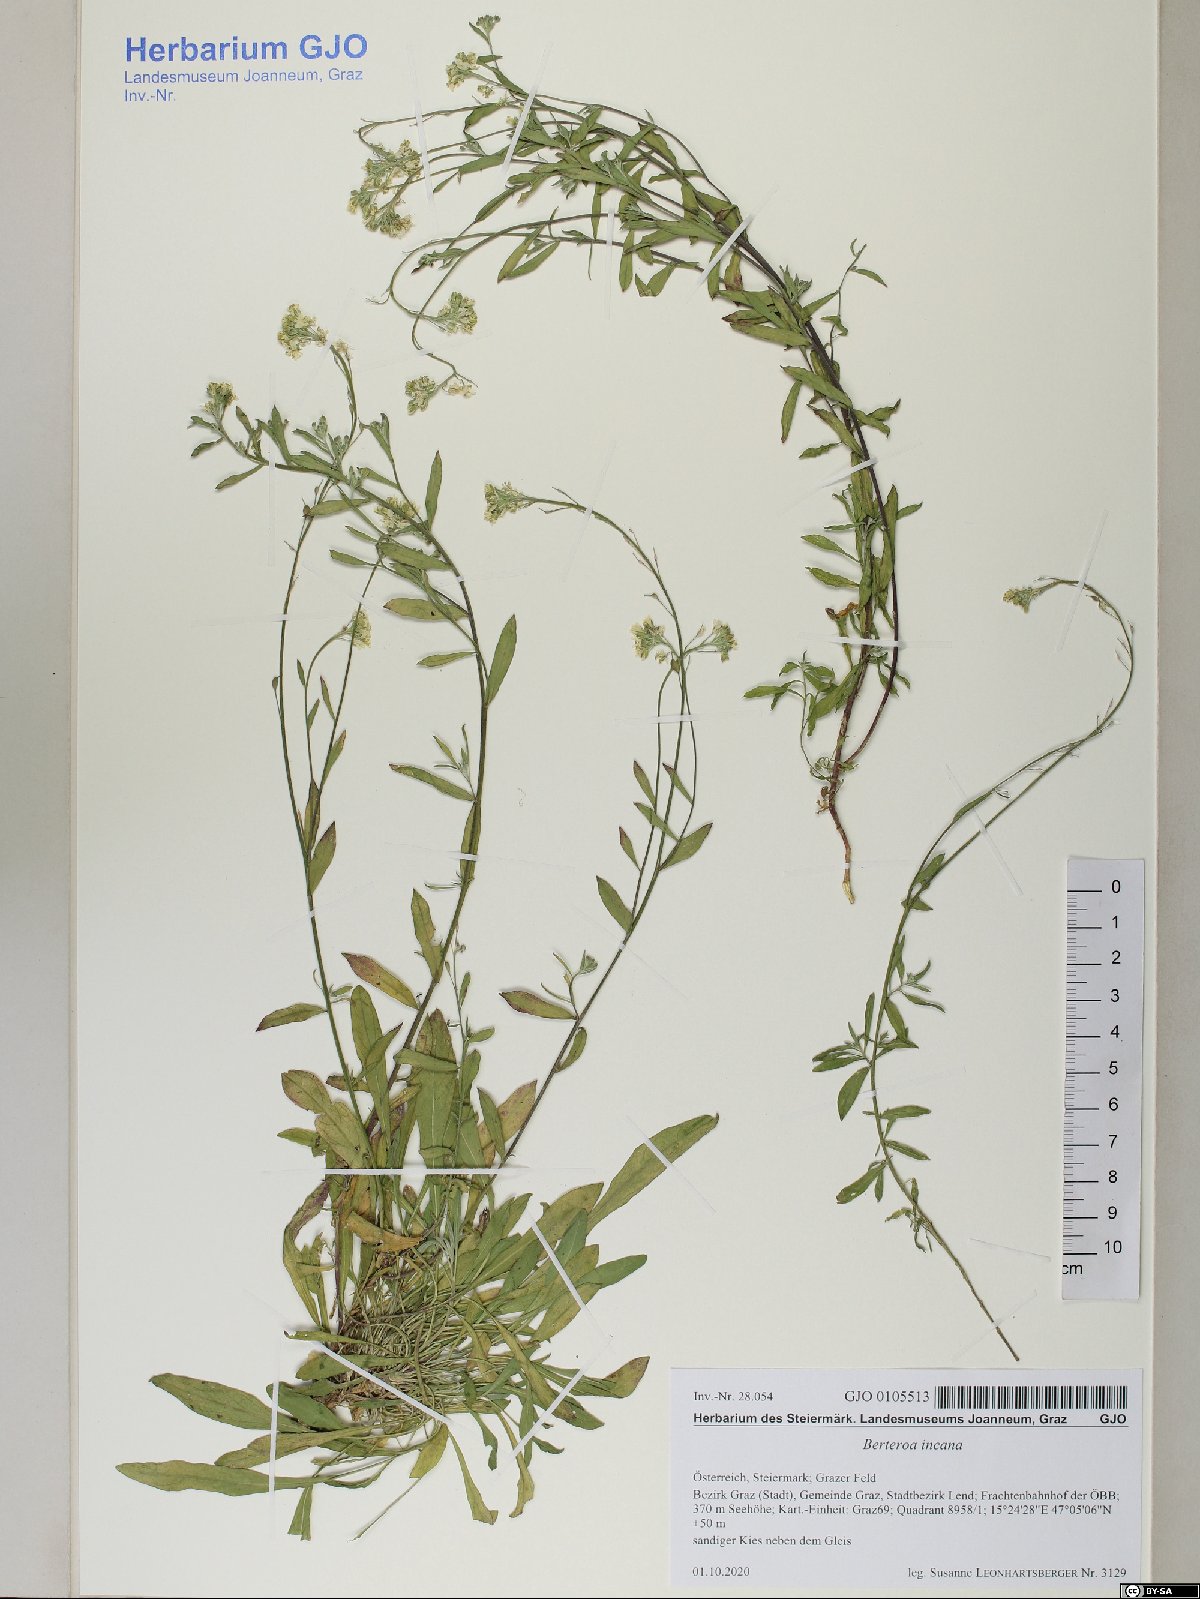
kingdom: Plantae
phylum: Tracheophyta
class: Magnoliopsida
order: Brassicales
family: Brassicaceae
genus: Berteroa
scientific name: Berteroa incana
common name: Hoary alison
